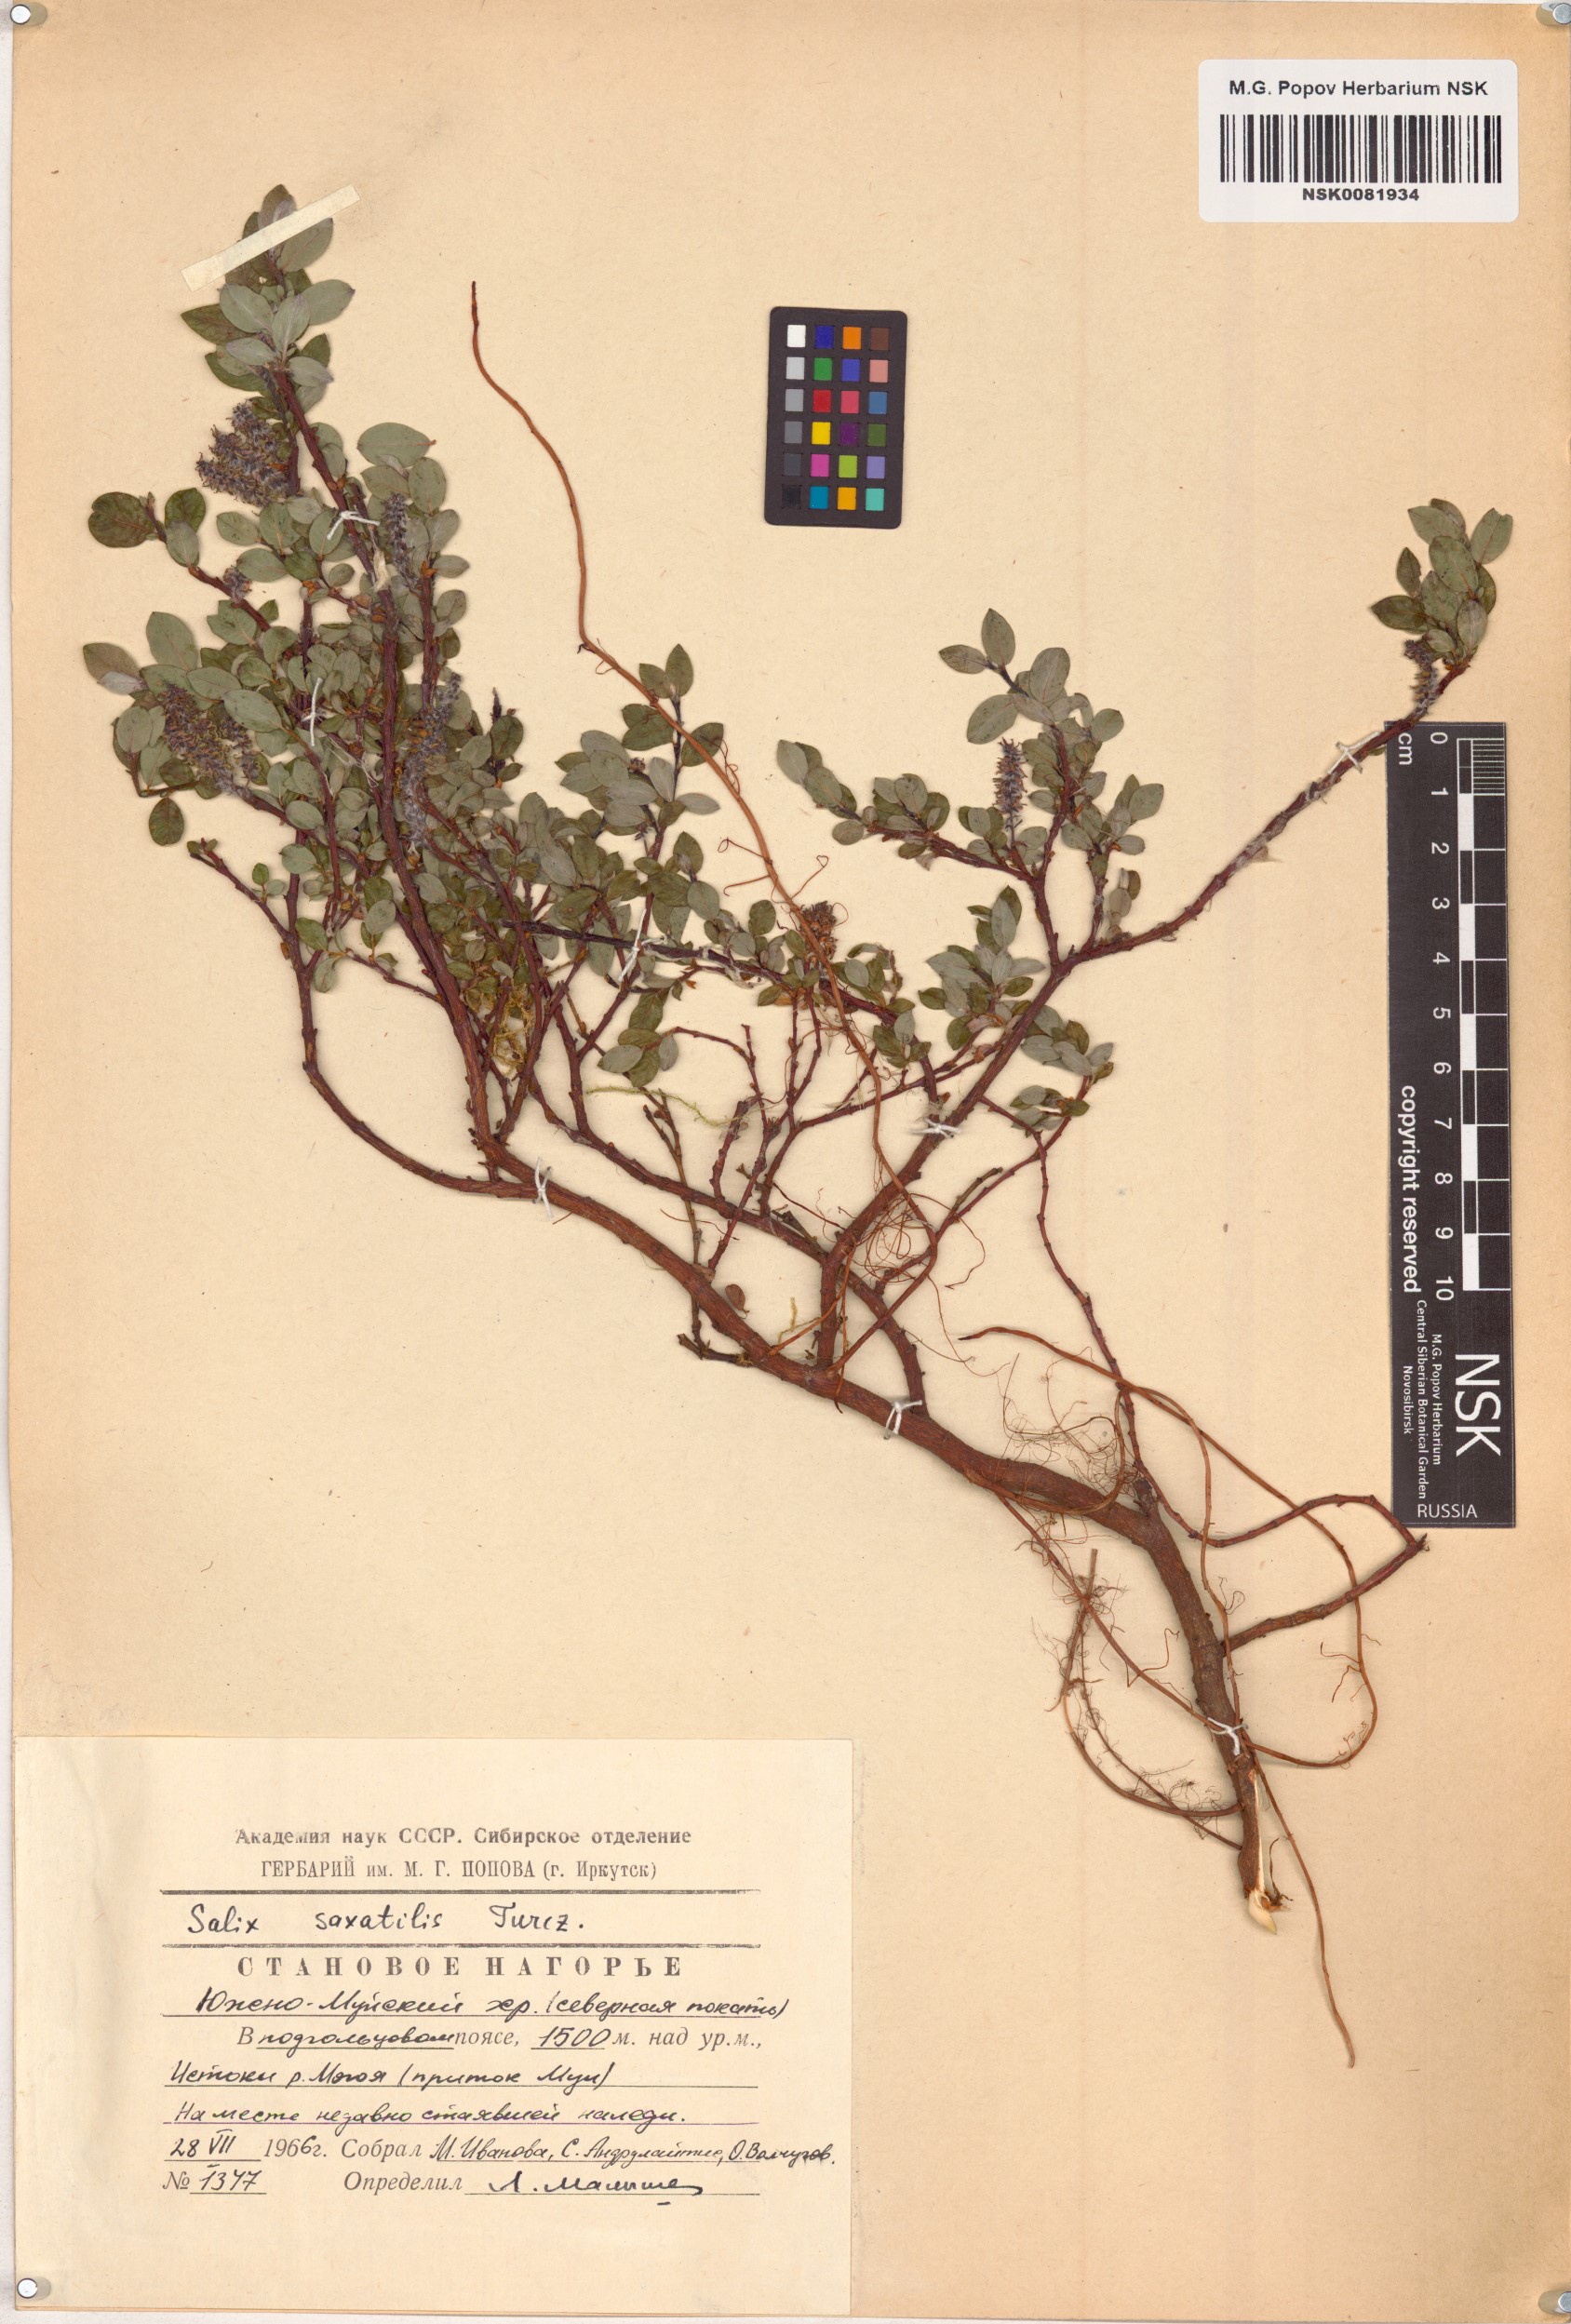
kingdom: Plantae
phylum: Tracheophyta
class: Magnoliopsida
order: Malpighiales
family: Salicaceae
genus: Salix
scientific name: Salix saxatilis
